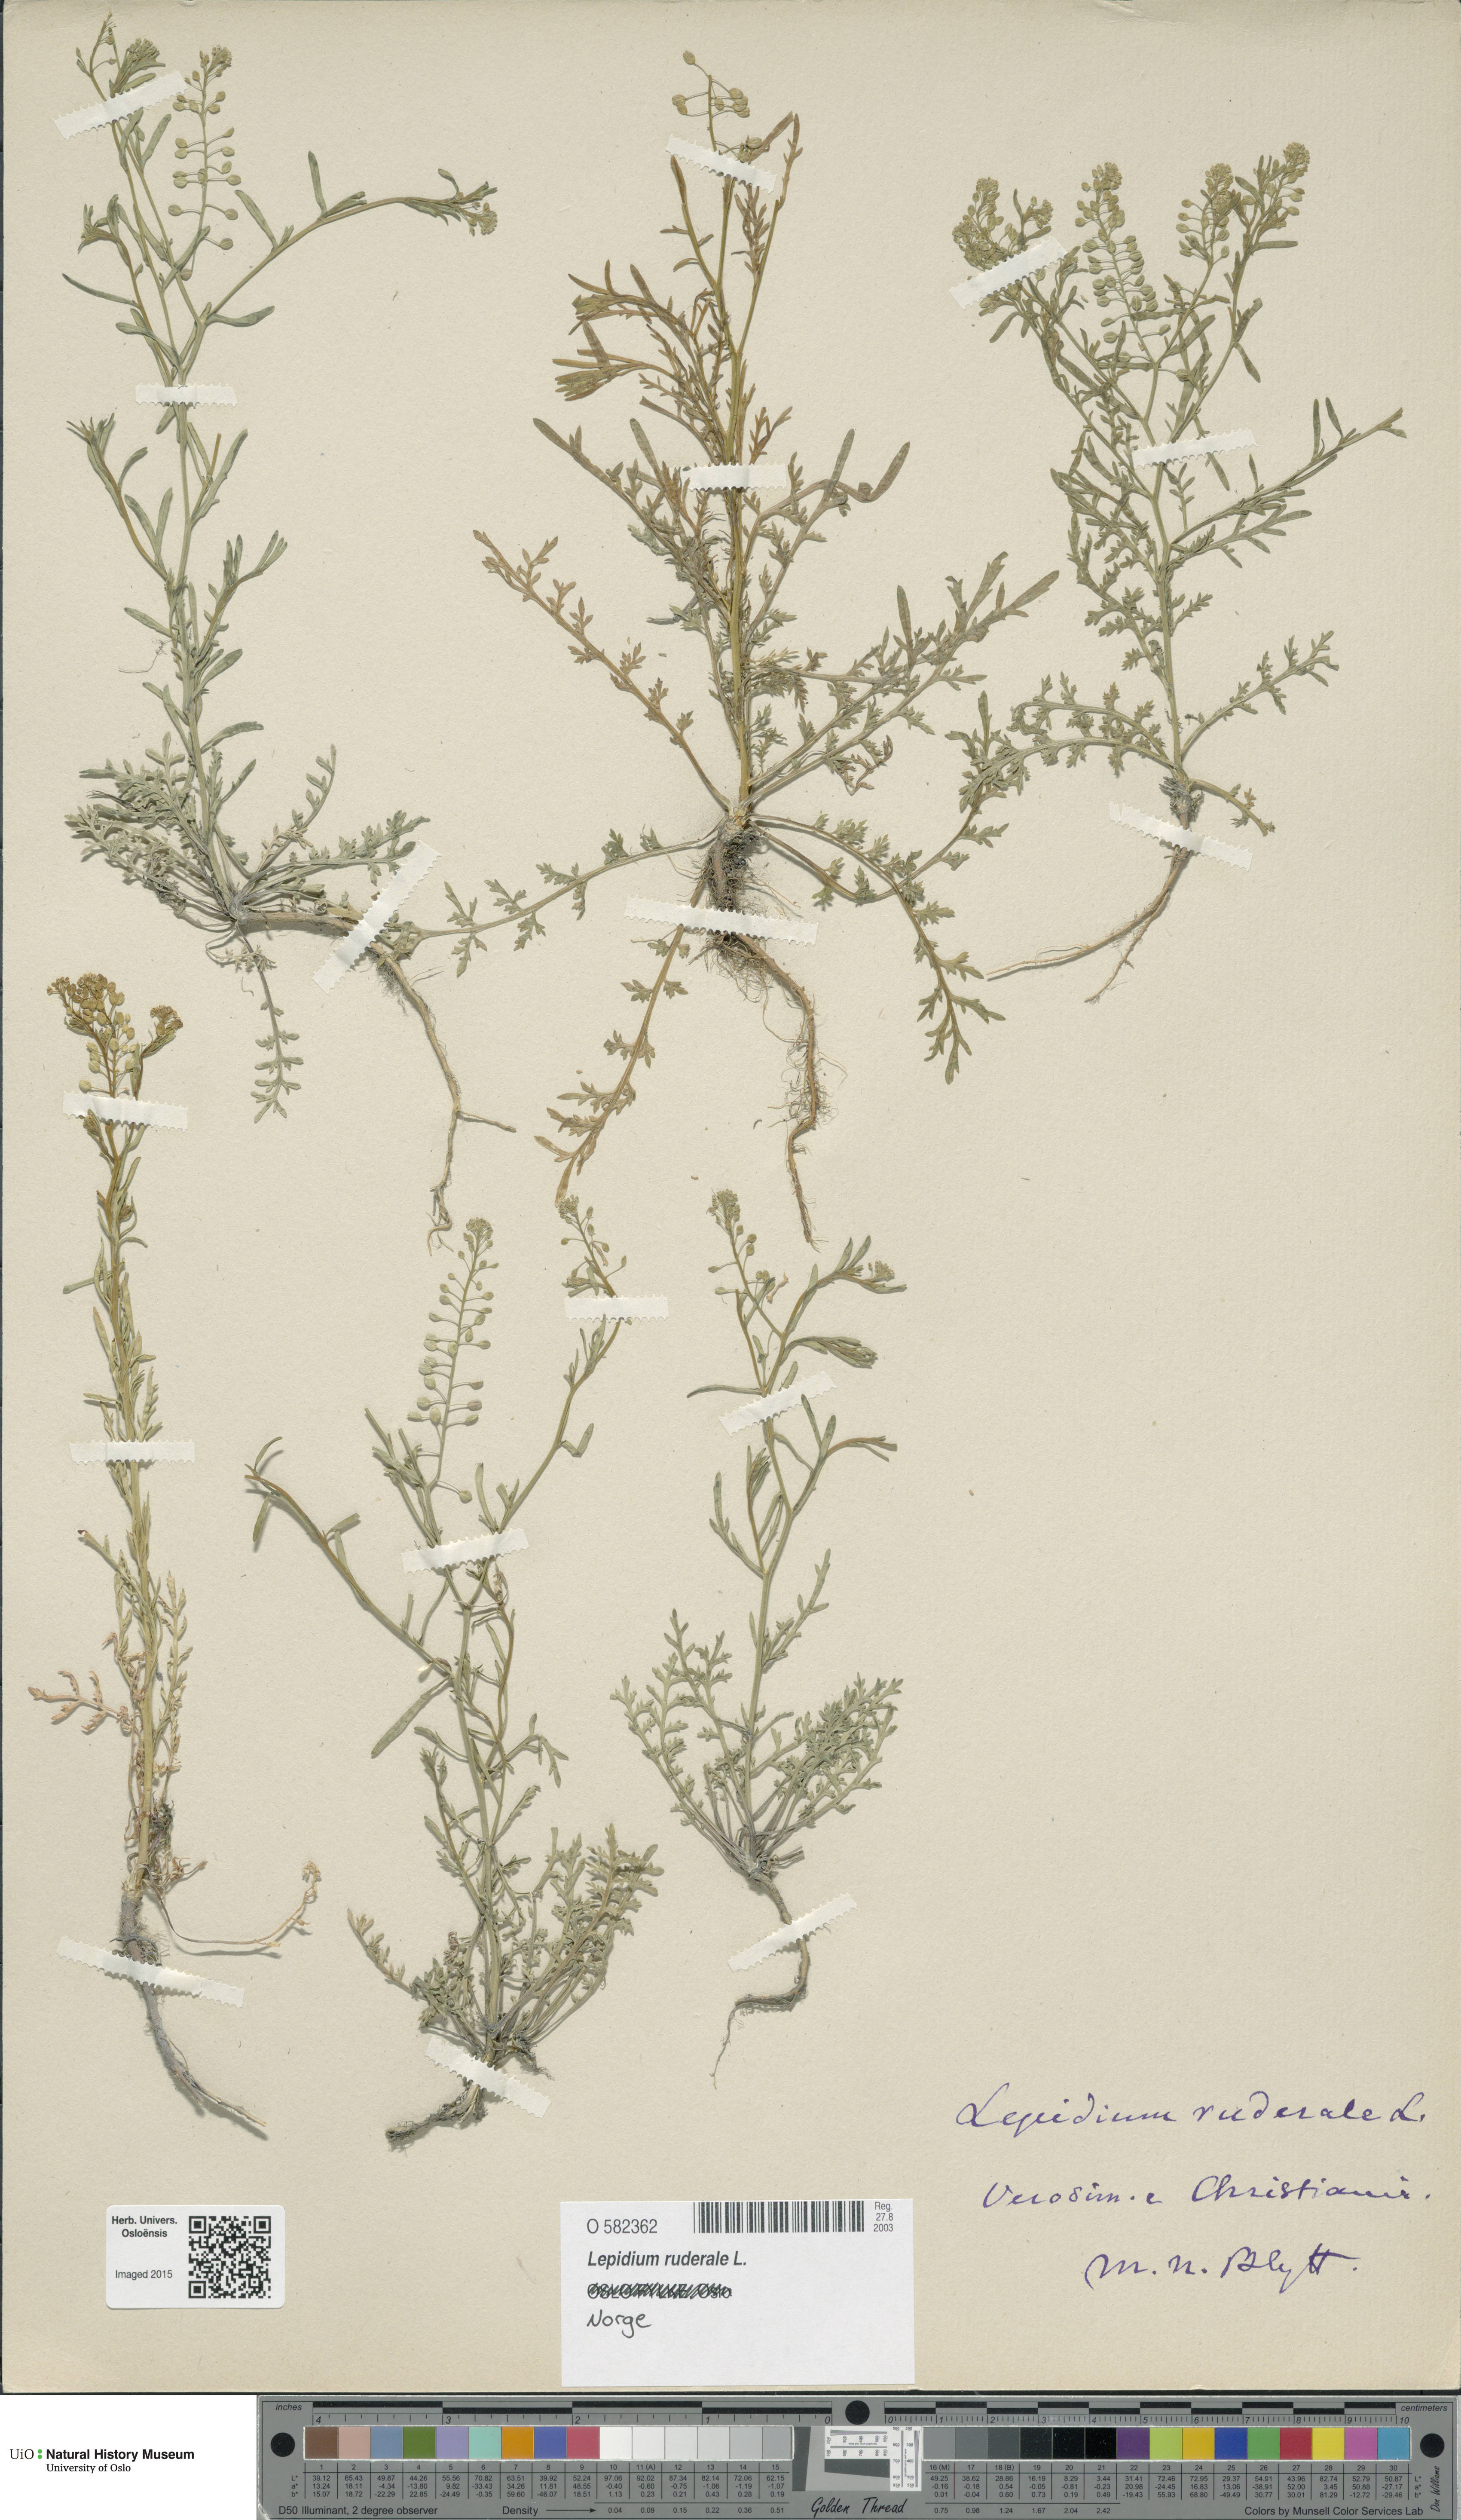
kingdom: Plantae
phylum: Tracheophyta
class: Magnoliopsida
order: Brassicales
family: Brassicaceae
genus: Lepidium
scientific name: Lepidium ruderale
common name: Narrow-leaved pepperwort
